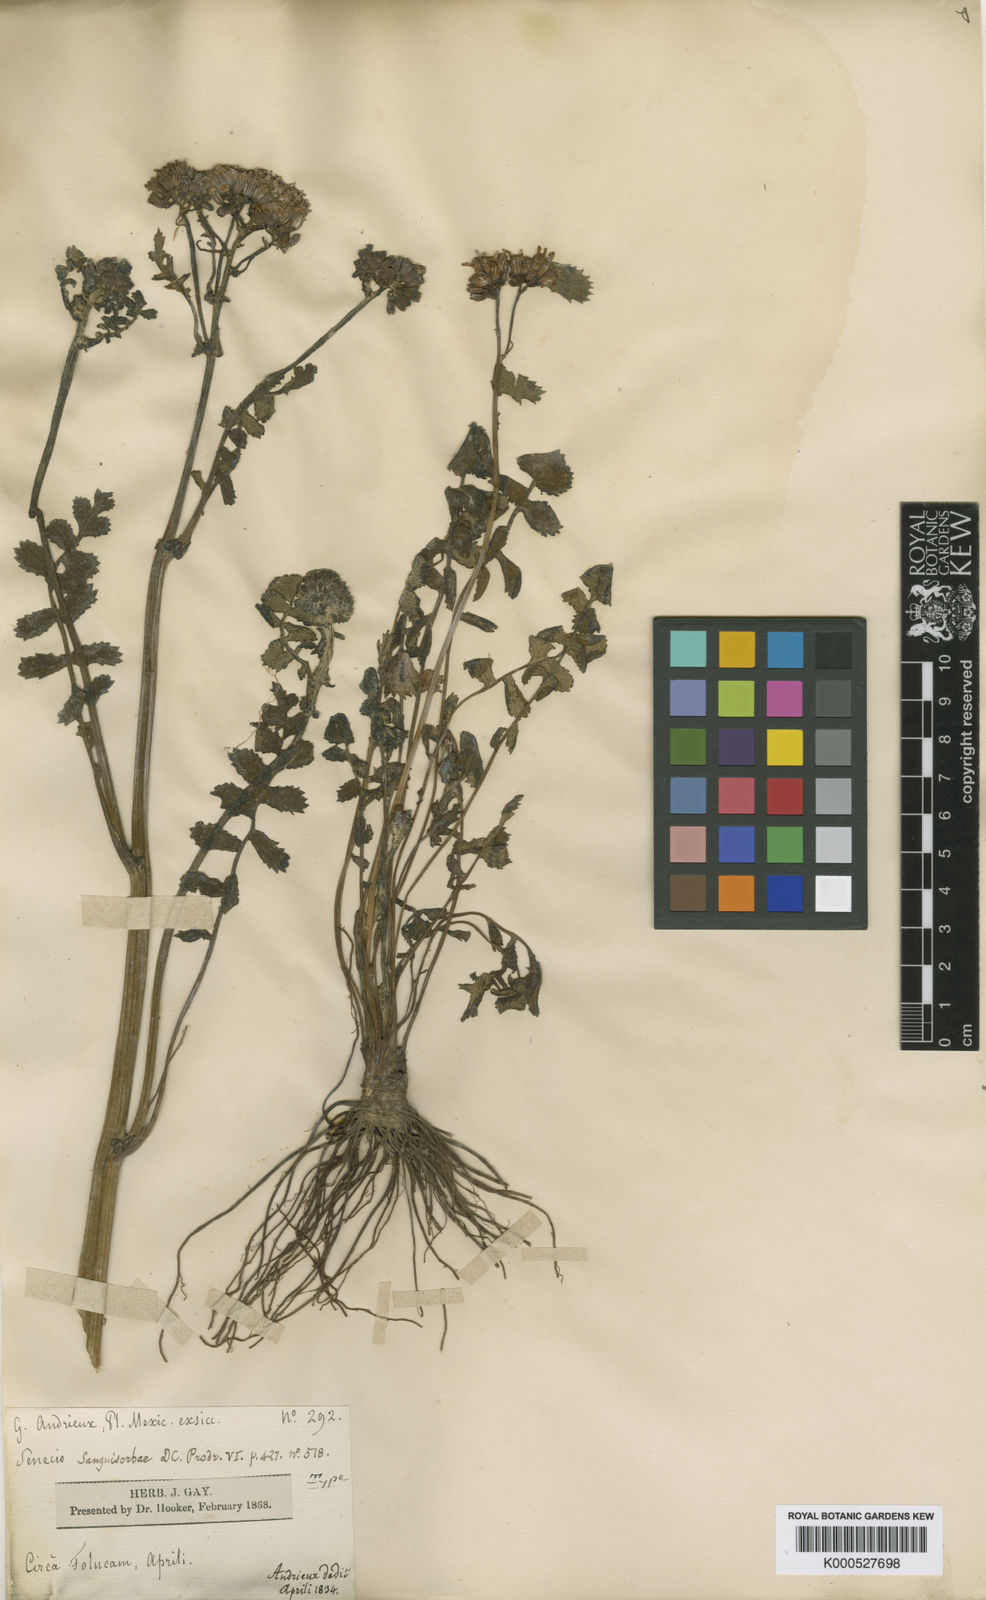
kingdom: Plantae
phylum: Tracheophyta
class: Magnoliopsida
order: Asterales
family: Asteraceae
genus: Packera
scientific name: Packera sanguisorbae
